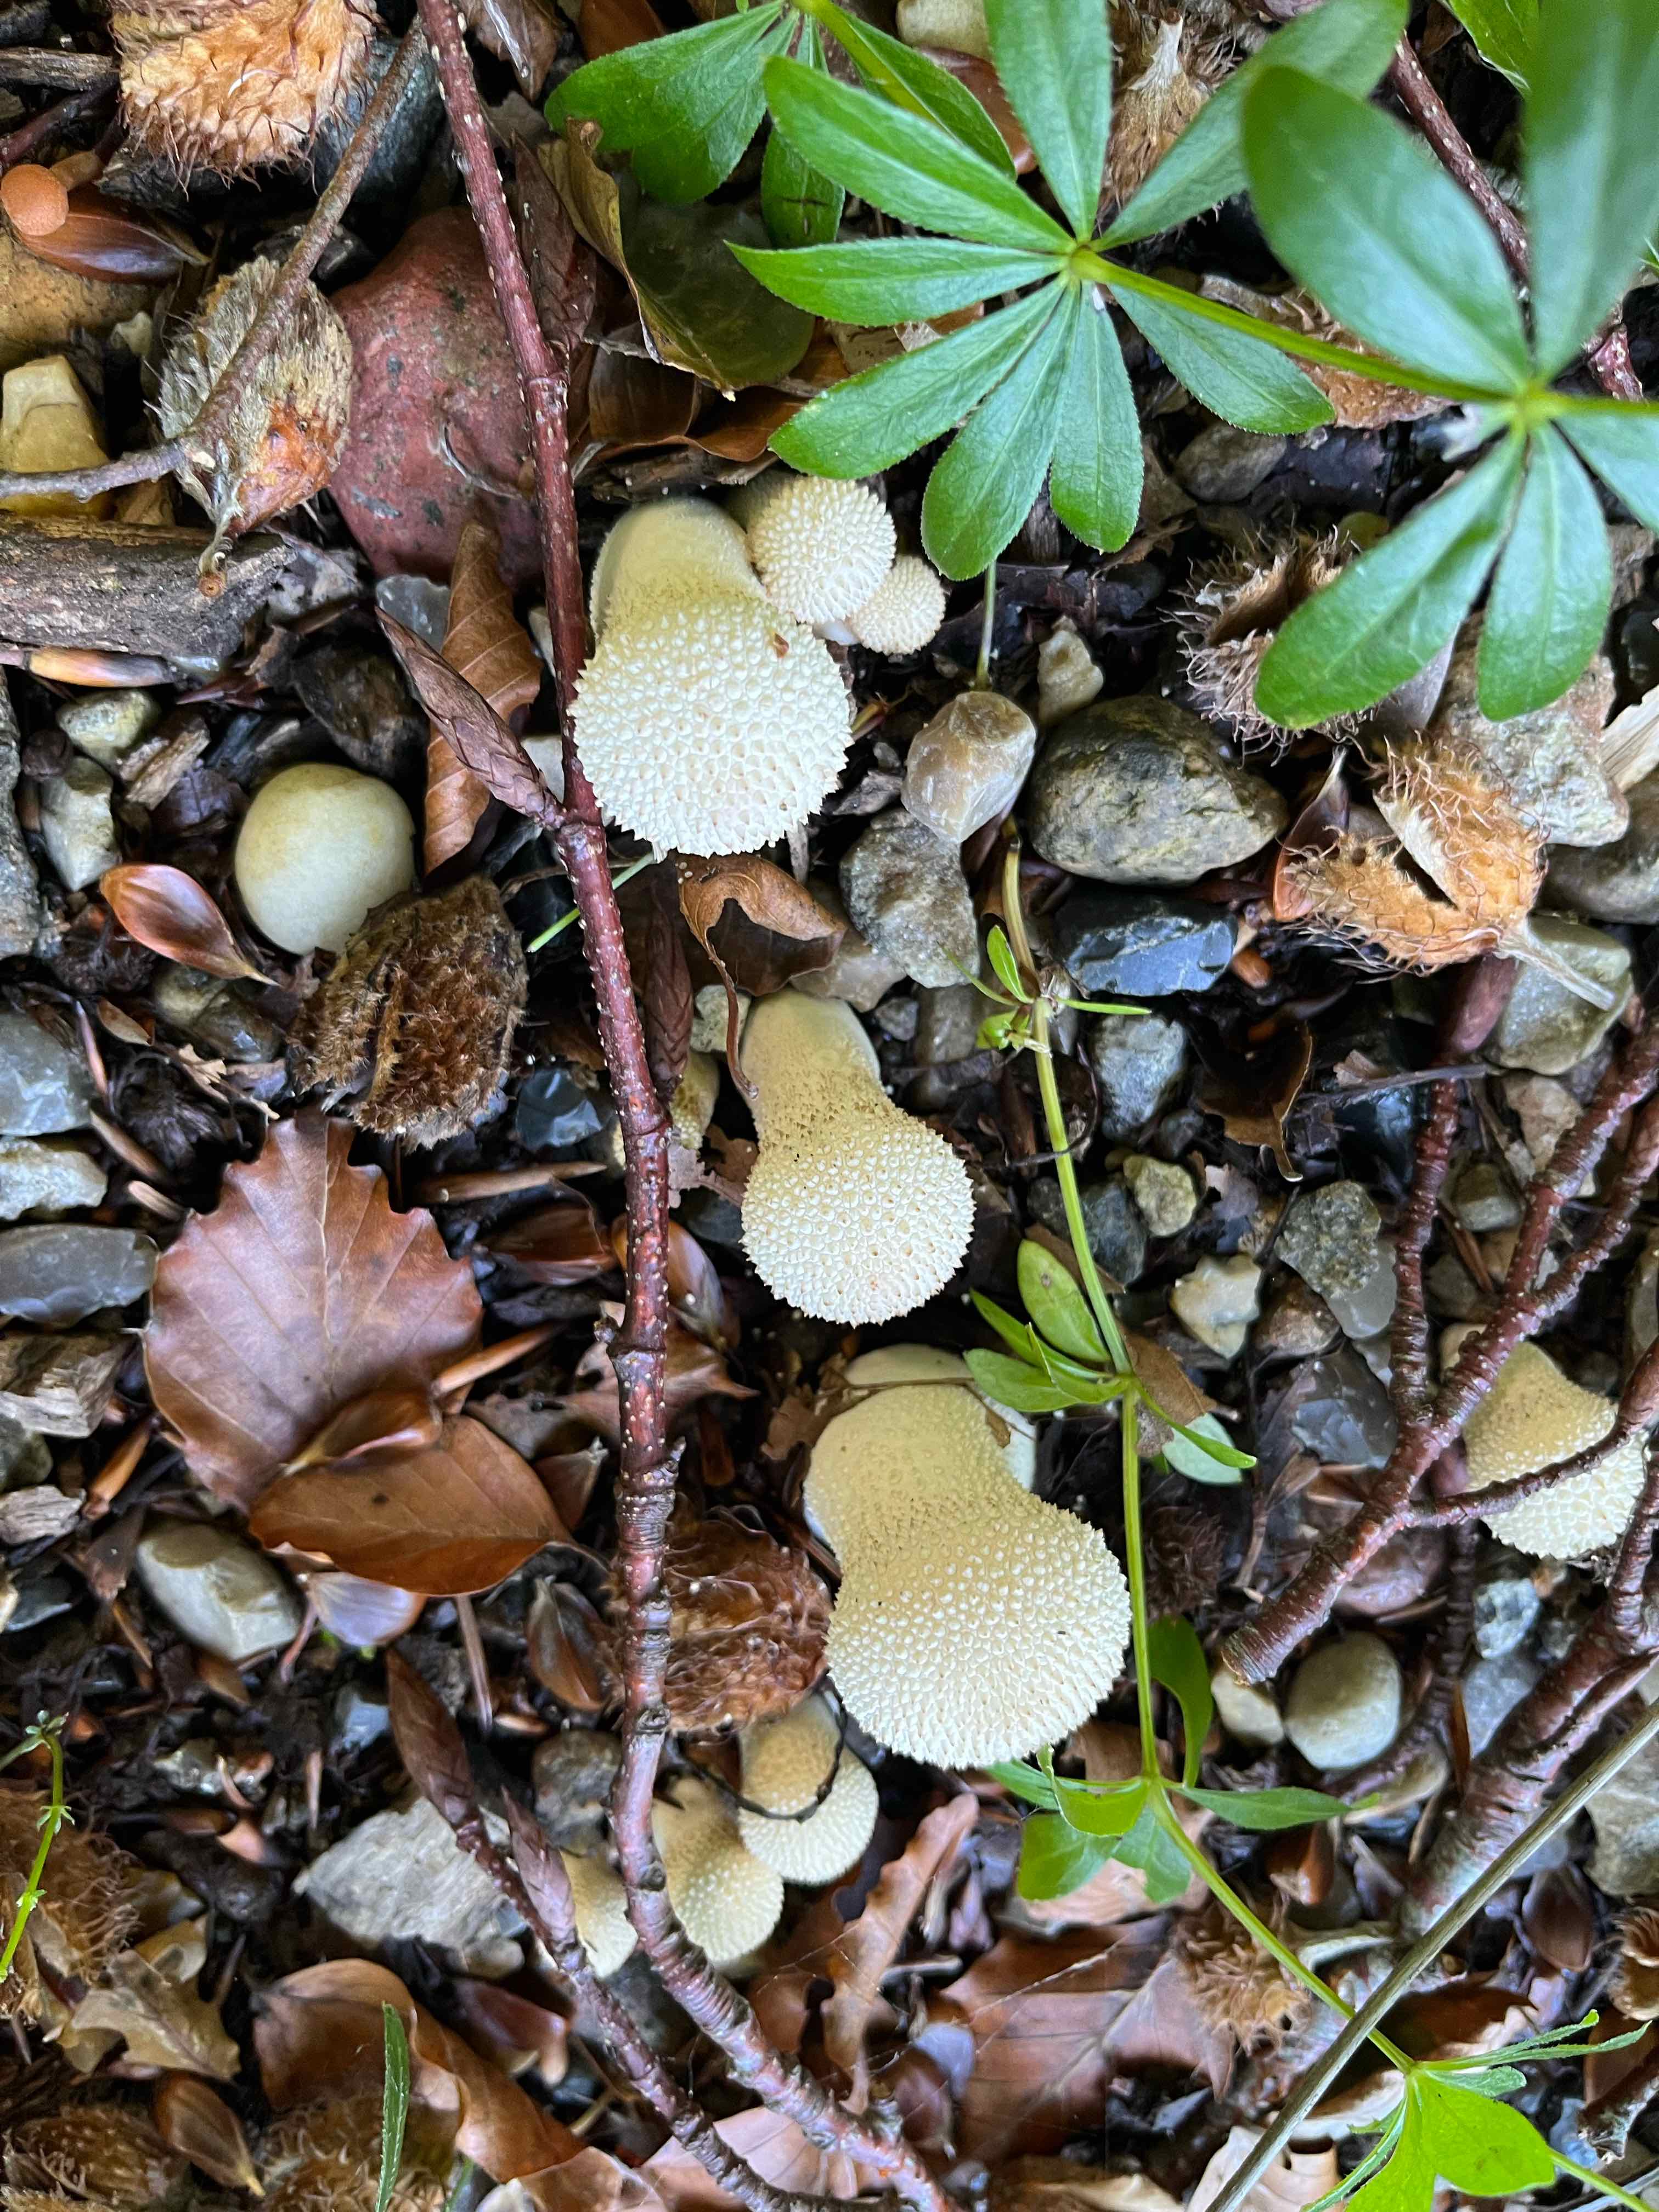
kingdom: Fungi
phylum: Basidiomycota
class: Agaricomycetes
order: Agaricales
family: Lycoperdaceae
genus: Lycoperdon
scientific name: Lycoperdon perlatum
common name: krystal-støvbold
